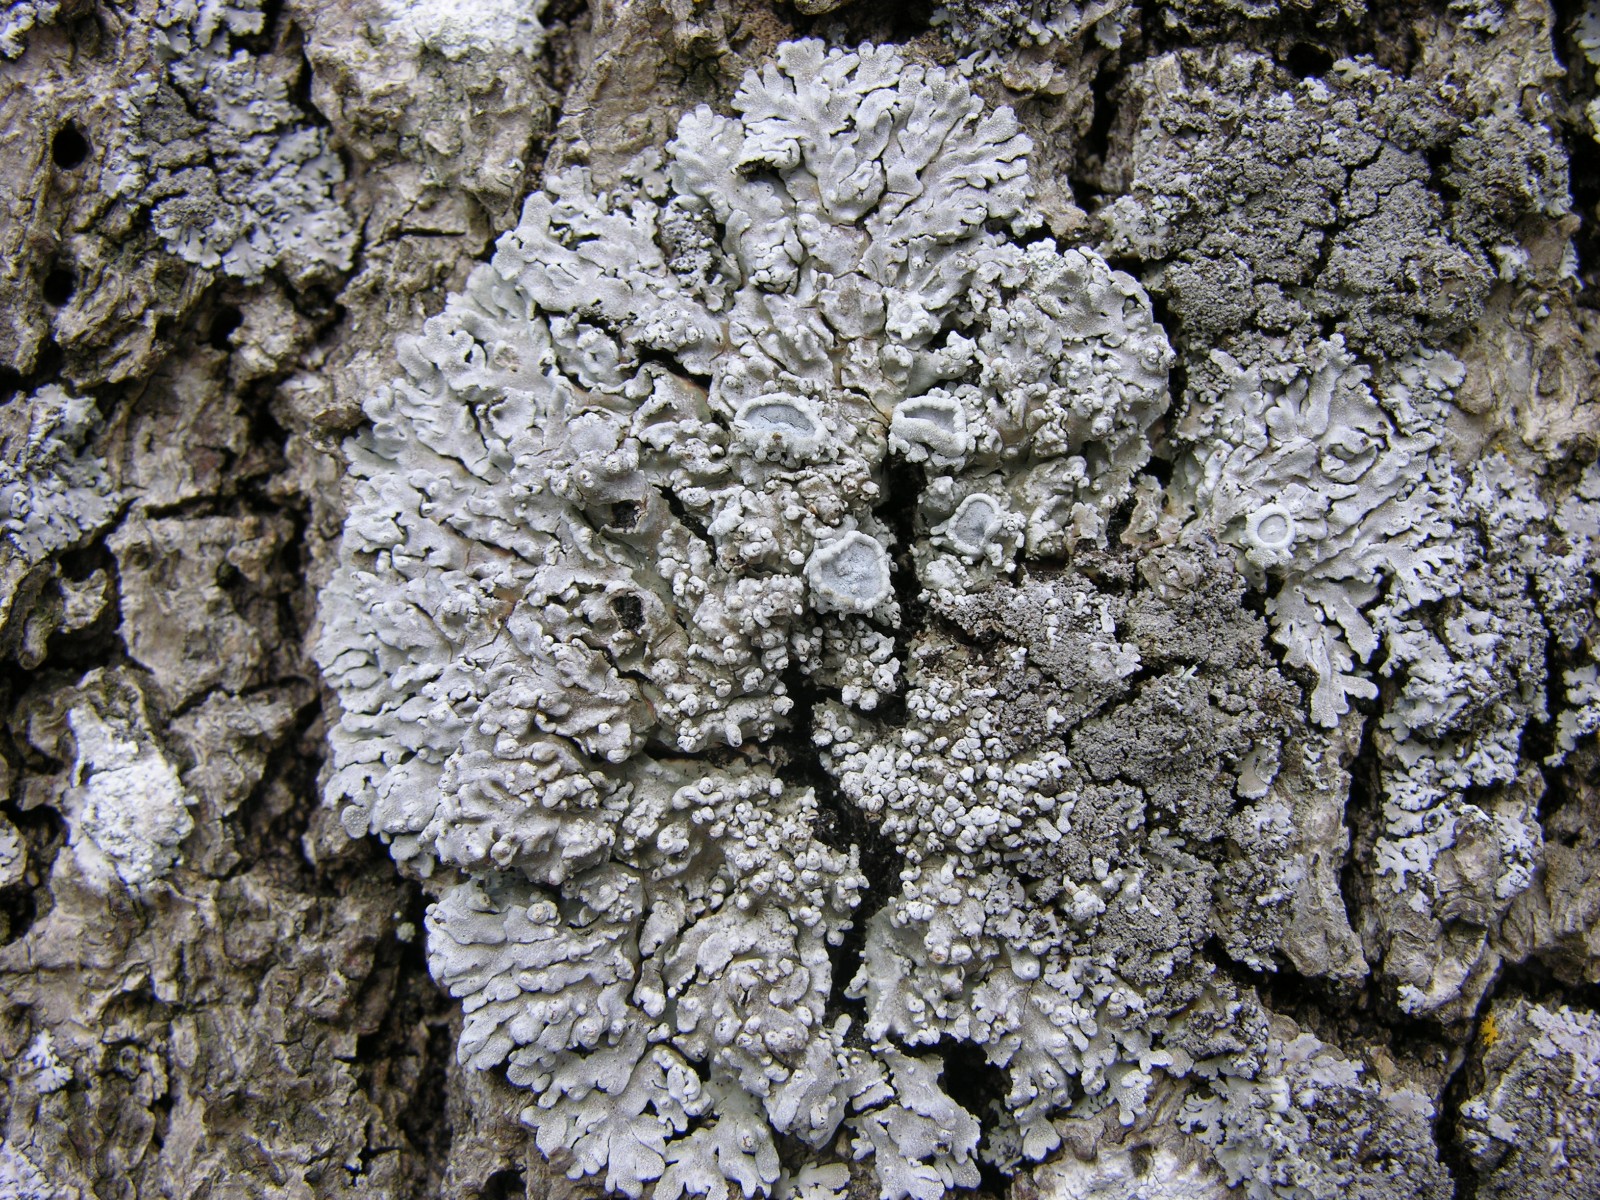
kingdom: Fungi
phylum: Ascomycota
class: Lecanoromycetes
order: Caliciales
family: Physciaceae
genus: Physconia
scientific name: Physconia distorta
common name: pudret dugrosetlav
